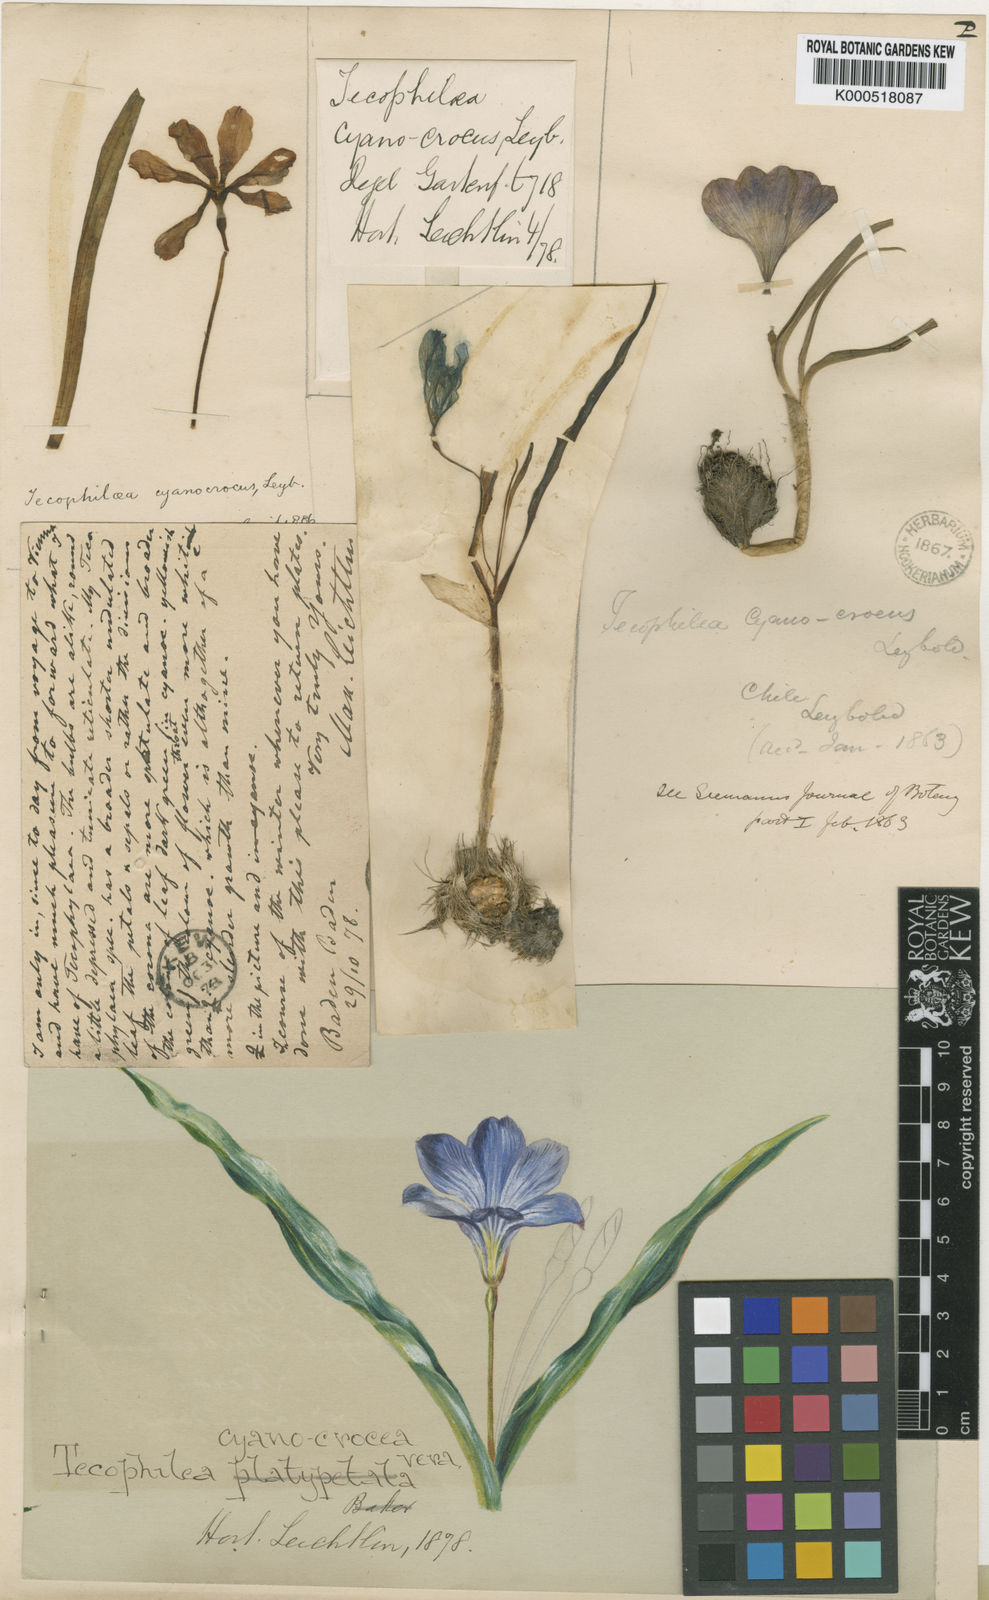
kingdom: Plantae
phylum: Tracheophyta
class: Liliopsida
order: Asparagales
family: Tecophilaeaceae
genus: Tecophilaea
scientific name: Tecophilaea cyanocrocus
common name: Chilean blue-crocus
